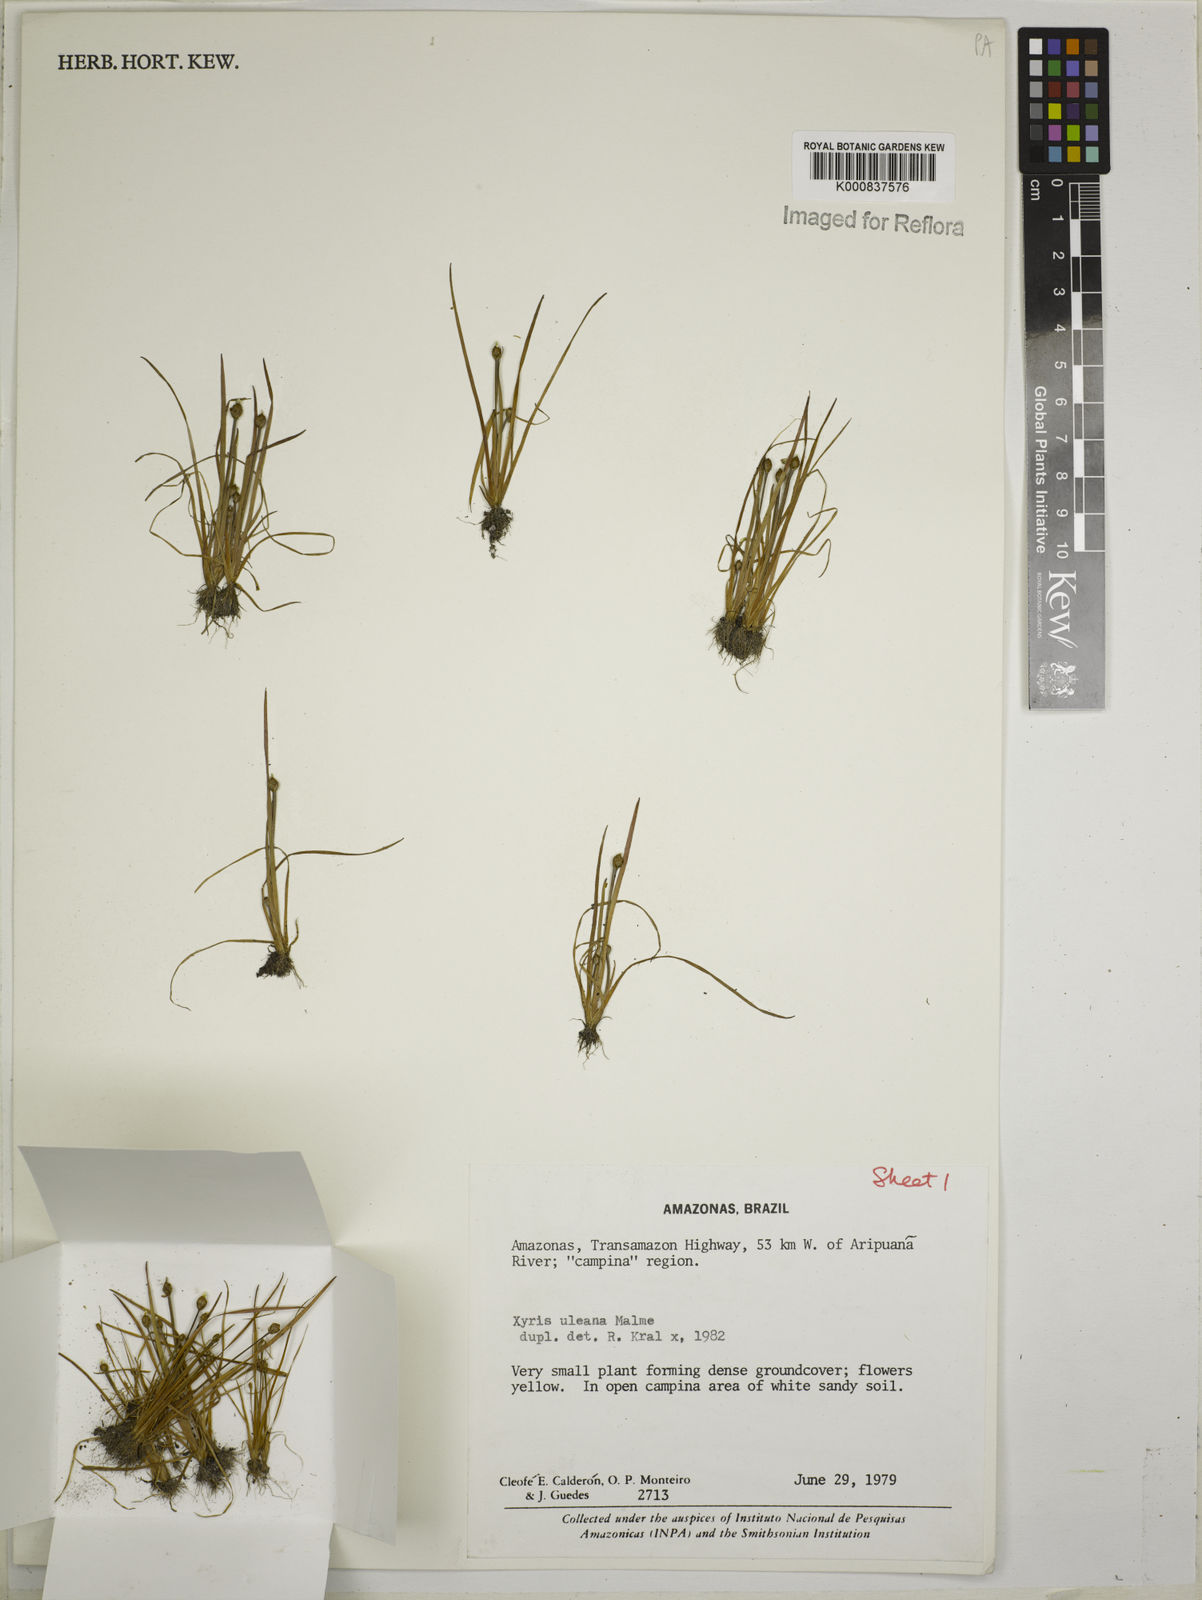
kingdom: Plantae
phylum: Tracheophyta
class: Liliopsida
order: Poales
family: Xyridaceae
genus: Xyris
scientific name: Xyris uleana
